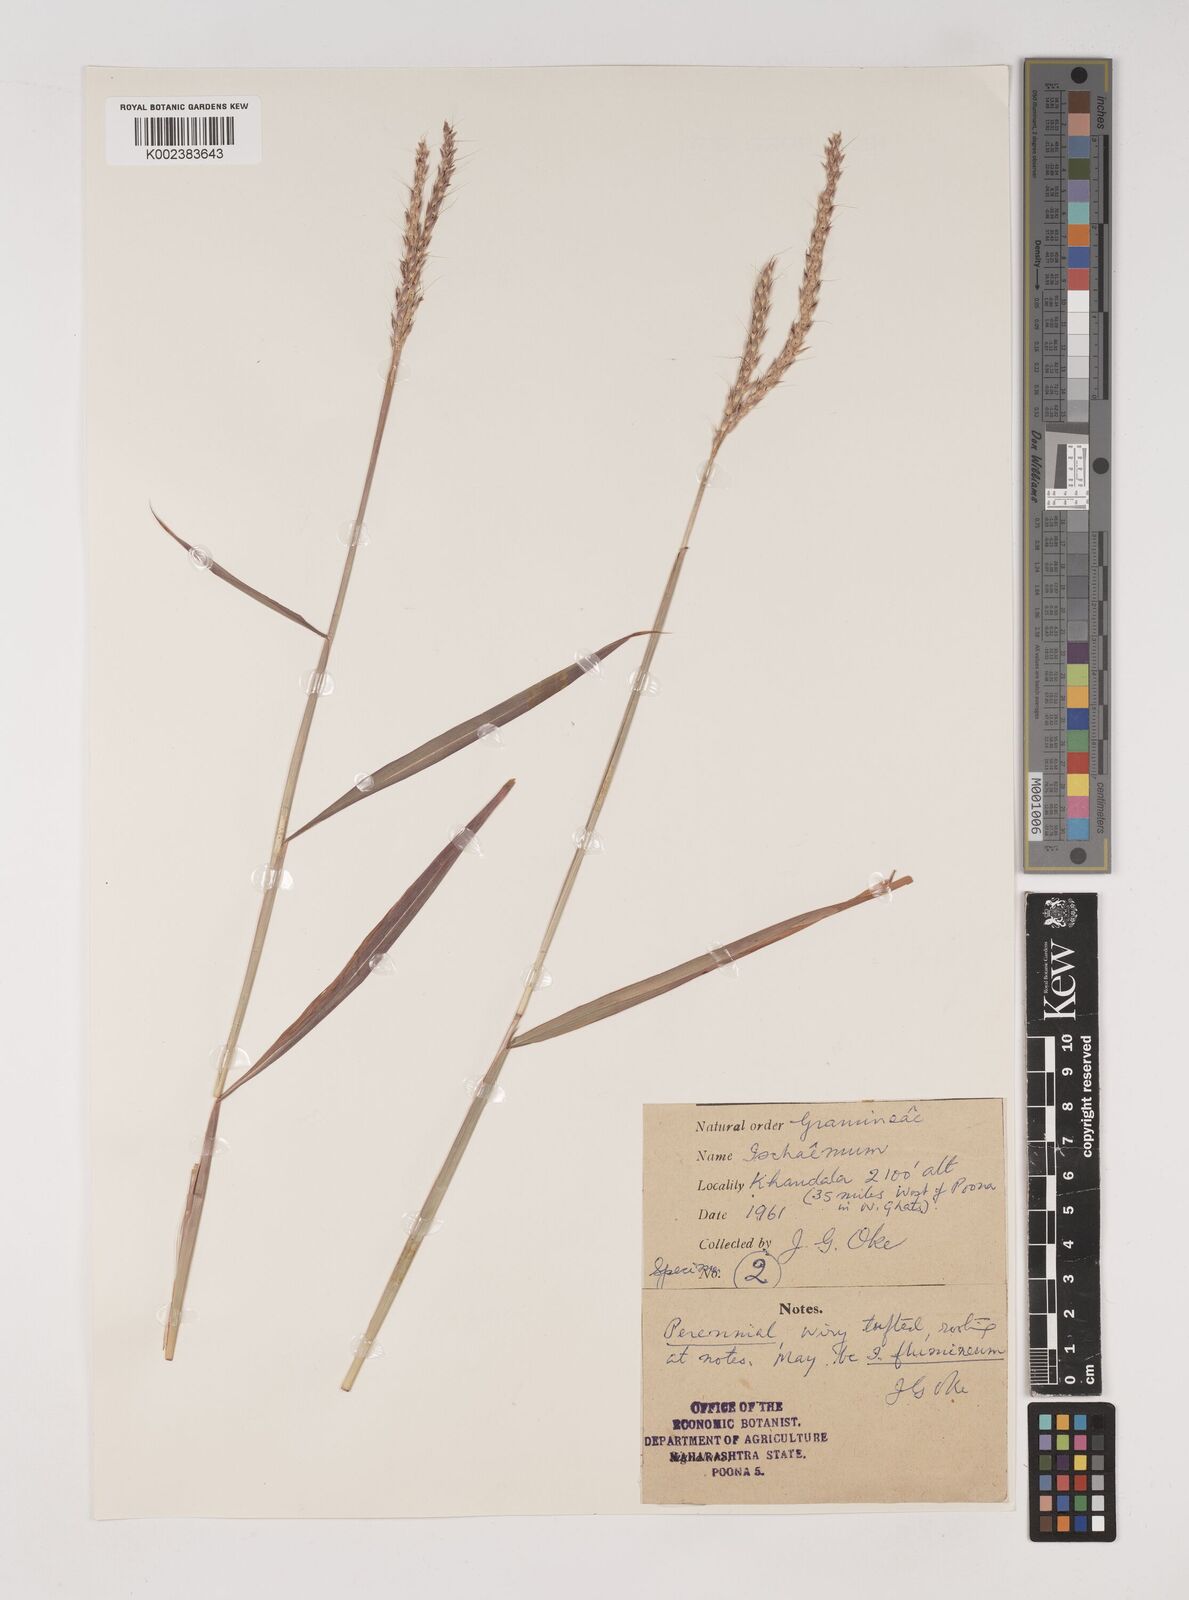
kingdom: Plantae
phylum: Tracheophyta
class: Liliopsida
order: Poales
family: Poaceae
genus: Ischaemum
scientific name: Ischaemum
